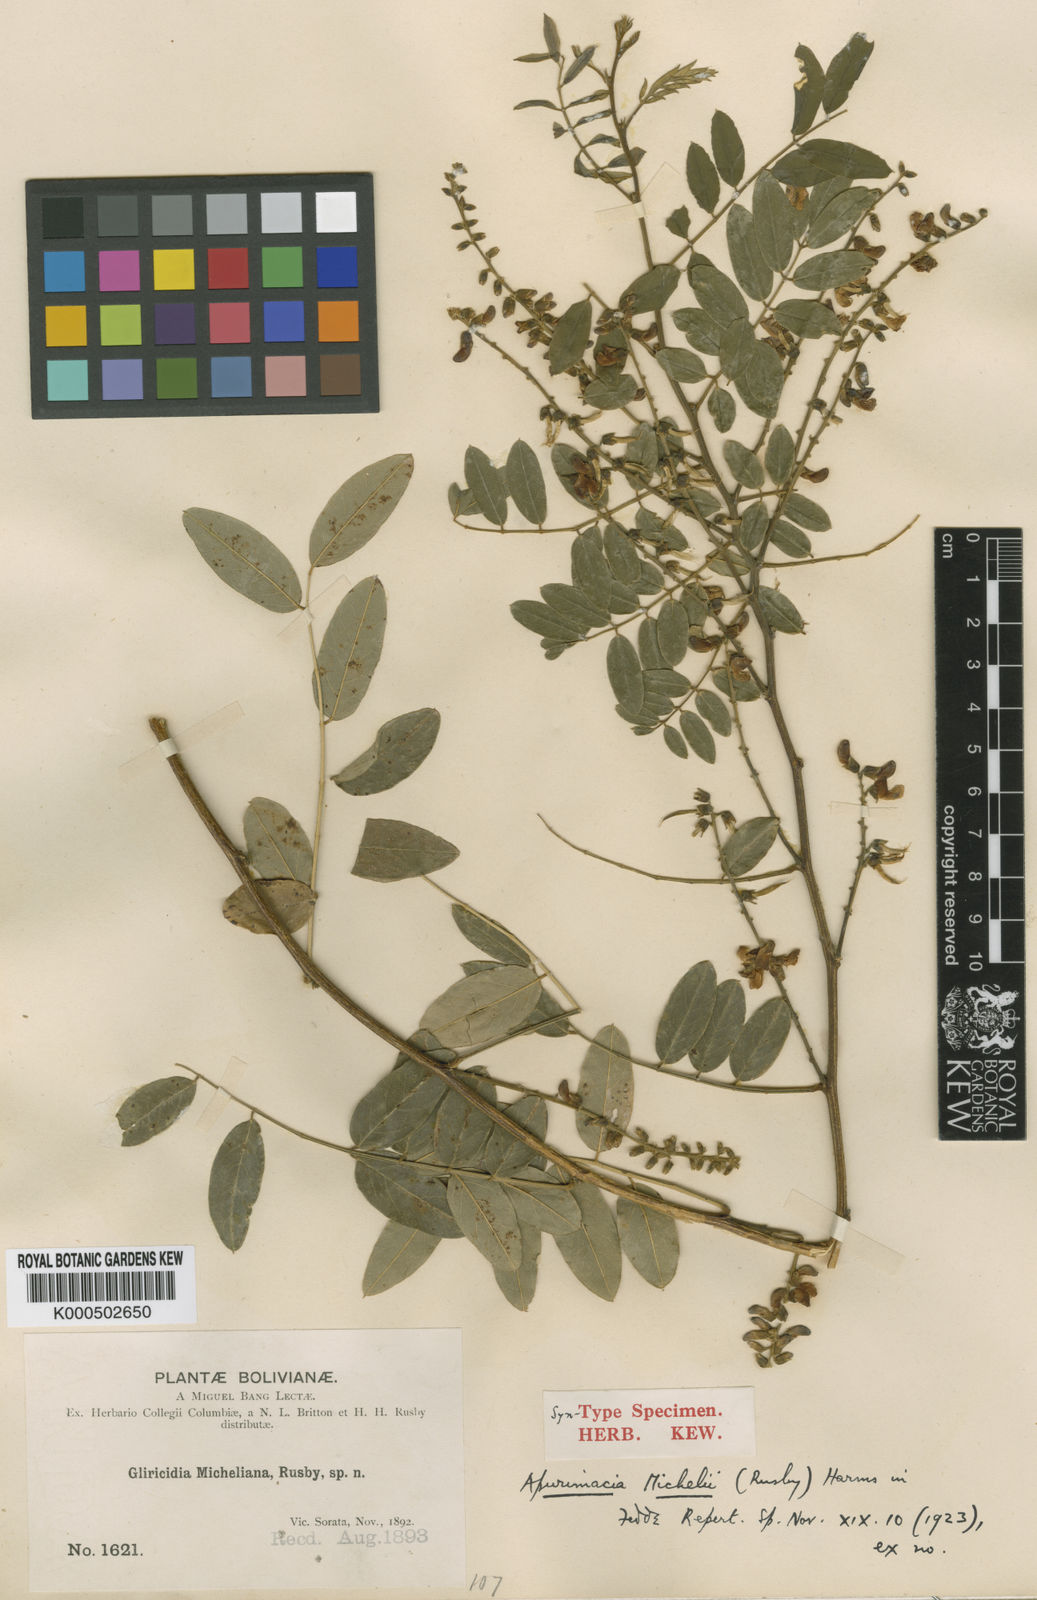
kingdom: Plantae
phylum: Tracheophyta
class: Magnoliopsida
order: Fabales
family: Fabaceae
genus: Apurimacia
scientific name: Apurimacia boliviana
